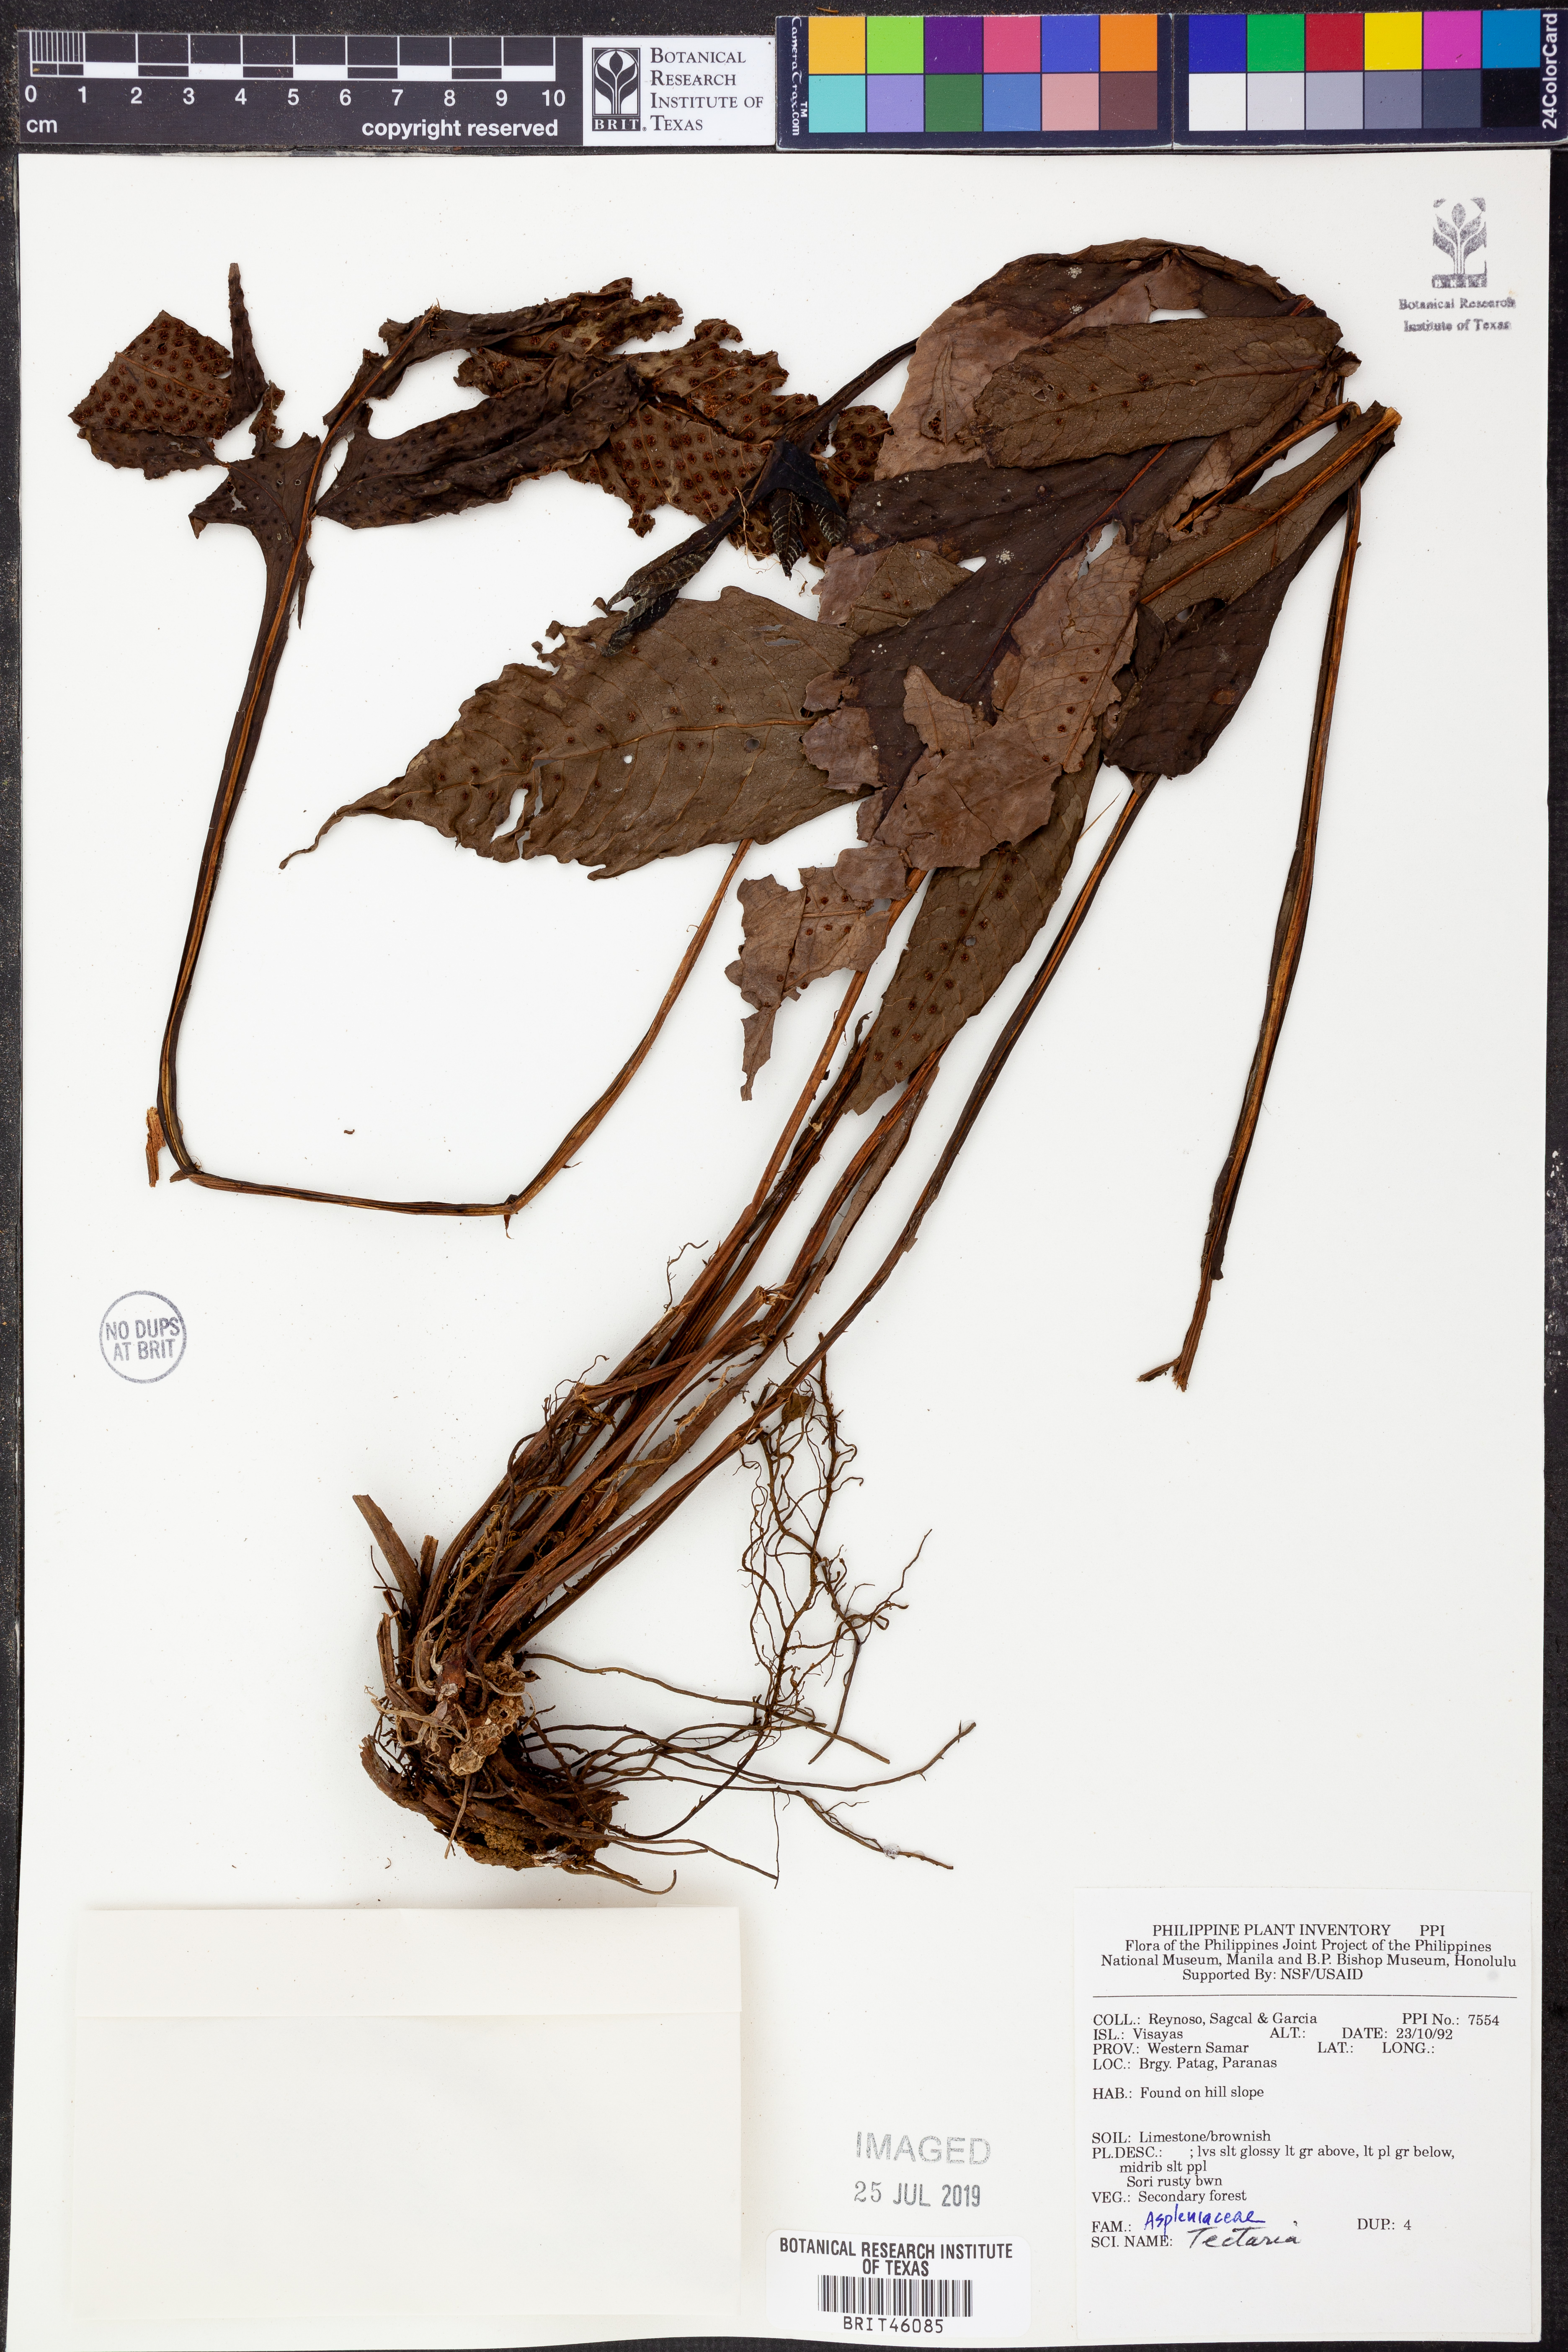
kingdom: Plantae
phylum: Tracheophyta
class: Polypodiopsida
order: Polypodiales
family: Tectariaceae
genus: Tectaria
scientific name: Tectaria
